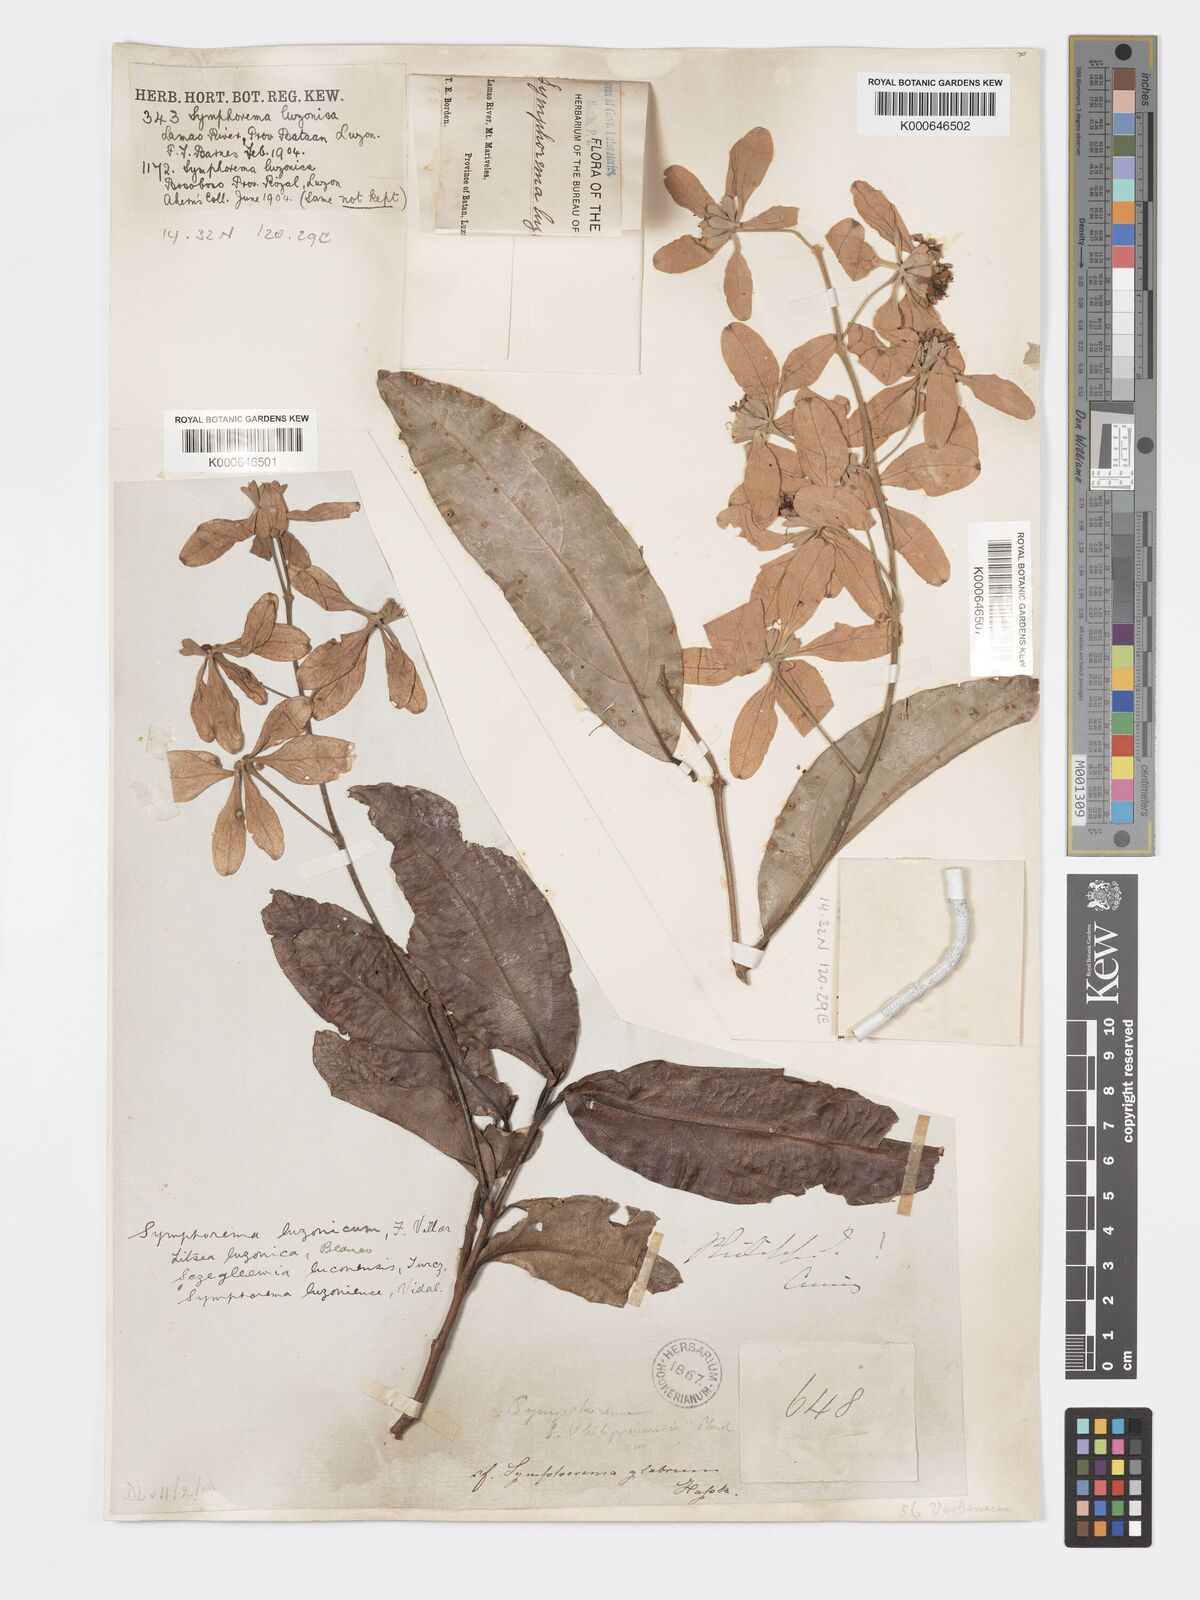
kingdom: Plantae
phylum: Tracheophyta
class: Magnoliopsida
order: Lamiales
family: Lamiaceae
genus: Symphorema
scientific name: Symphorema luzonicum
